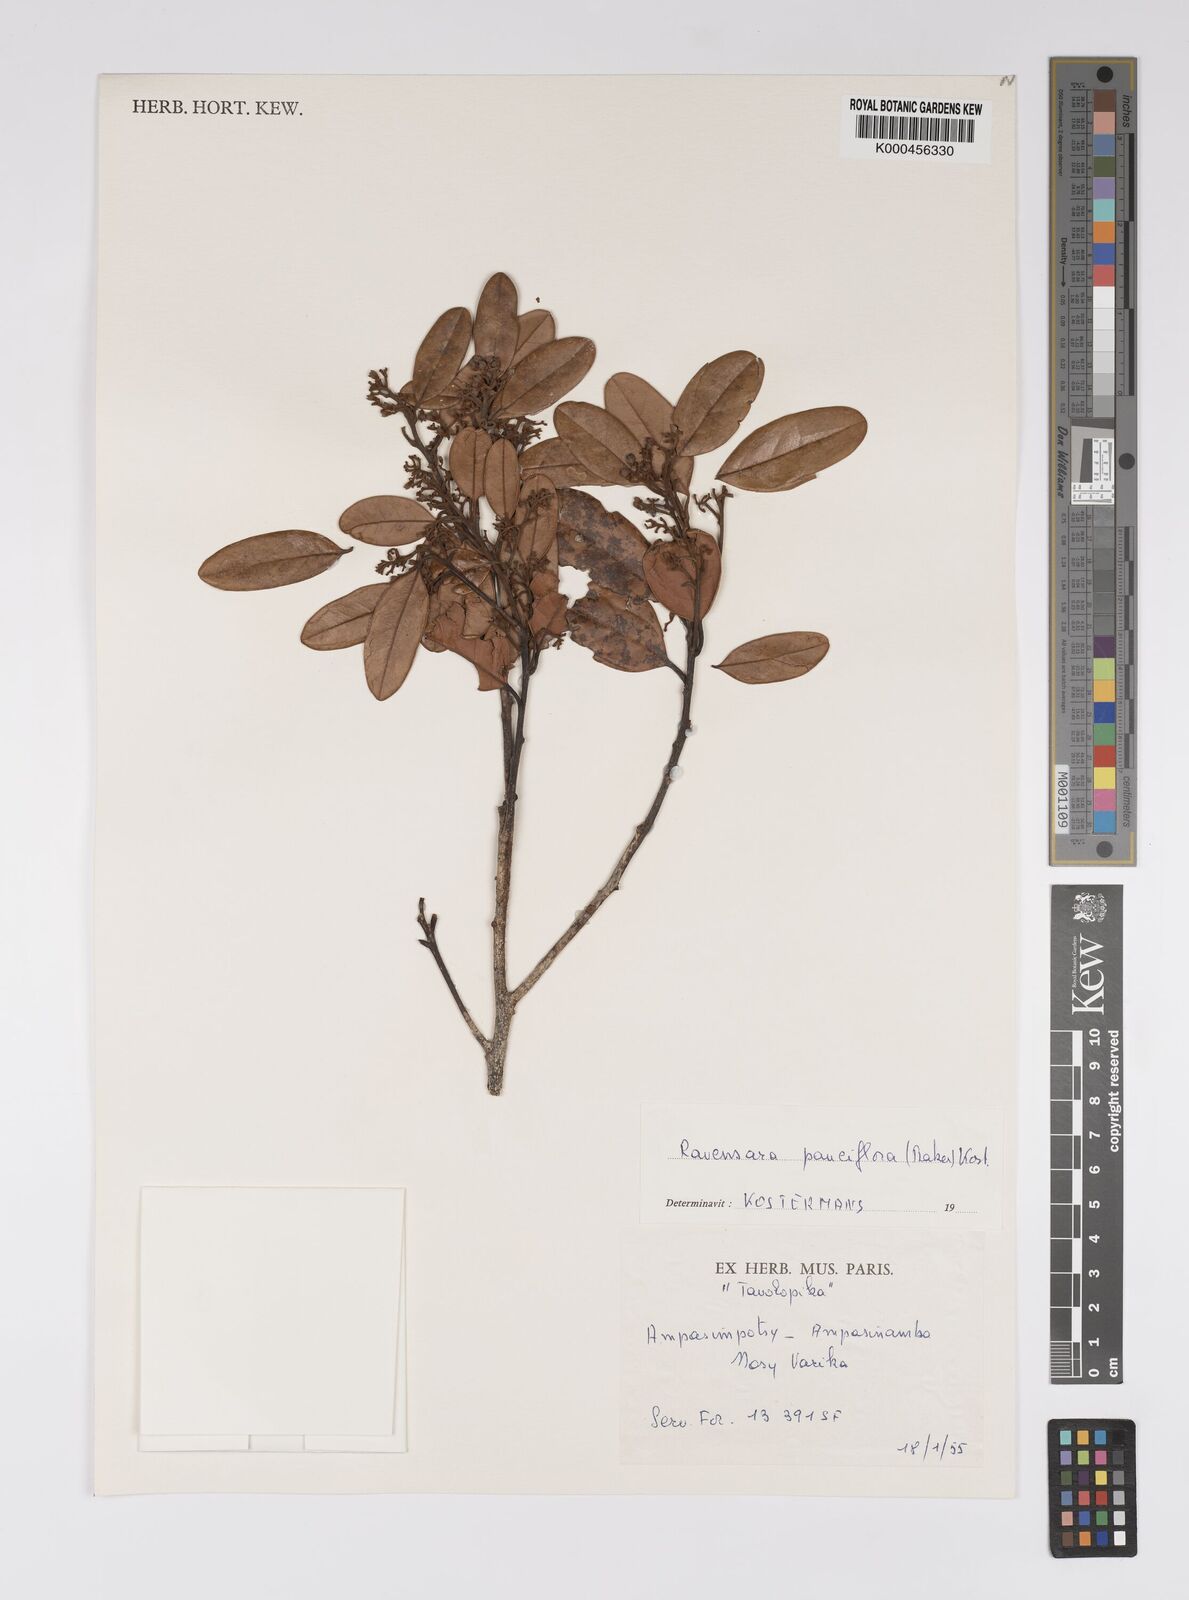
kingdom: Plantae
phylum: Tracheophyta
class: Magnoliopsida
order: Laurales
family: Lauraceae
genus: Cryptocarya
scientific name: Cryptocarya pauciflora
